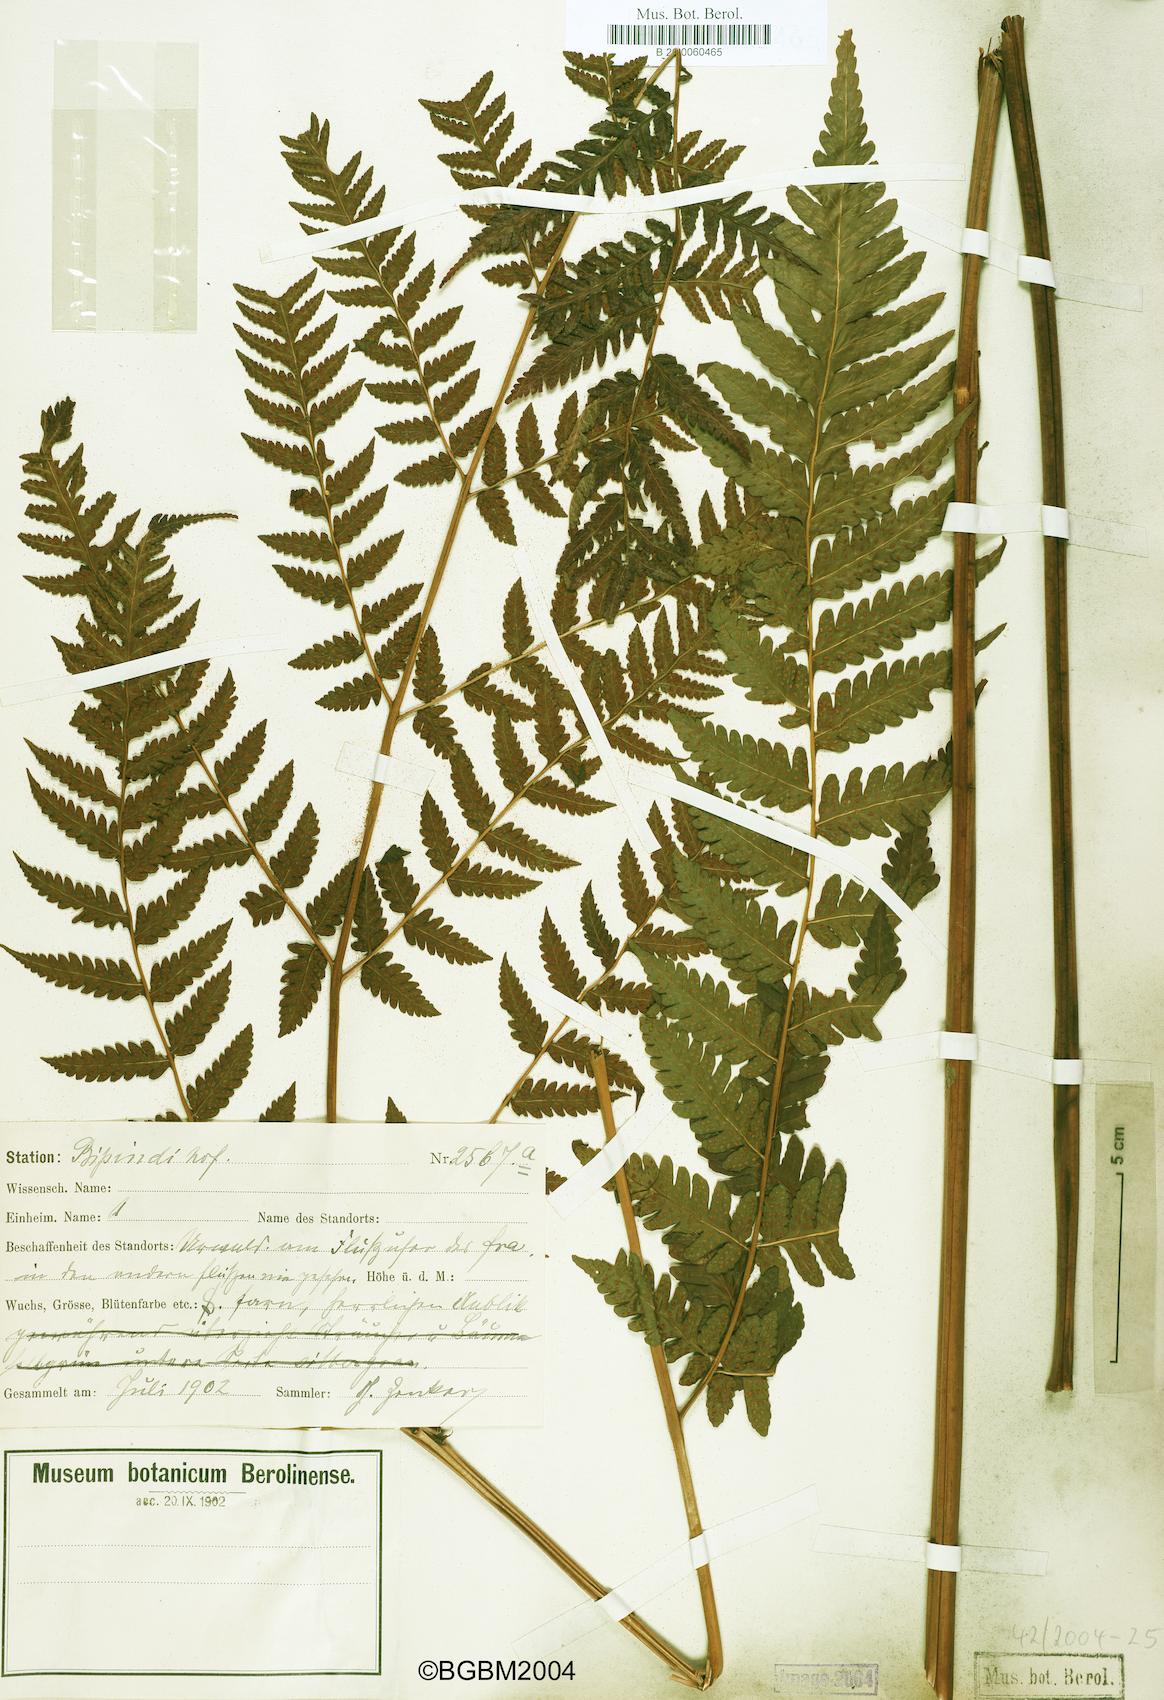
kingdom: Plantae
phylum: Tracheophyta
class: Polypodiopsida
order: Polypodiales
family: Dryopteridaceae
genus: Parapolystichum
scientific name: Parapolystichum nigritianum
